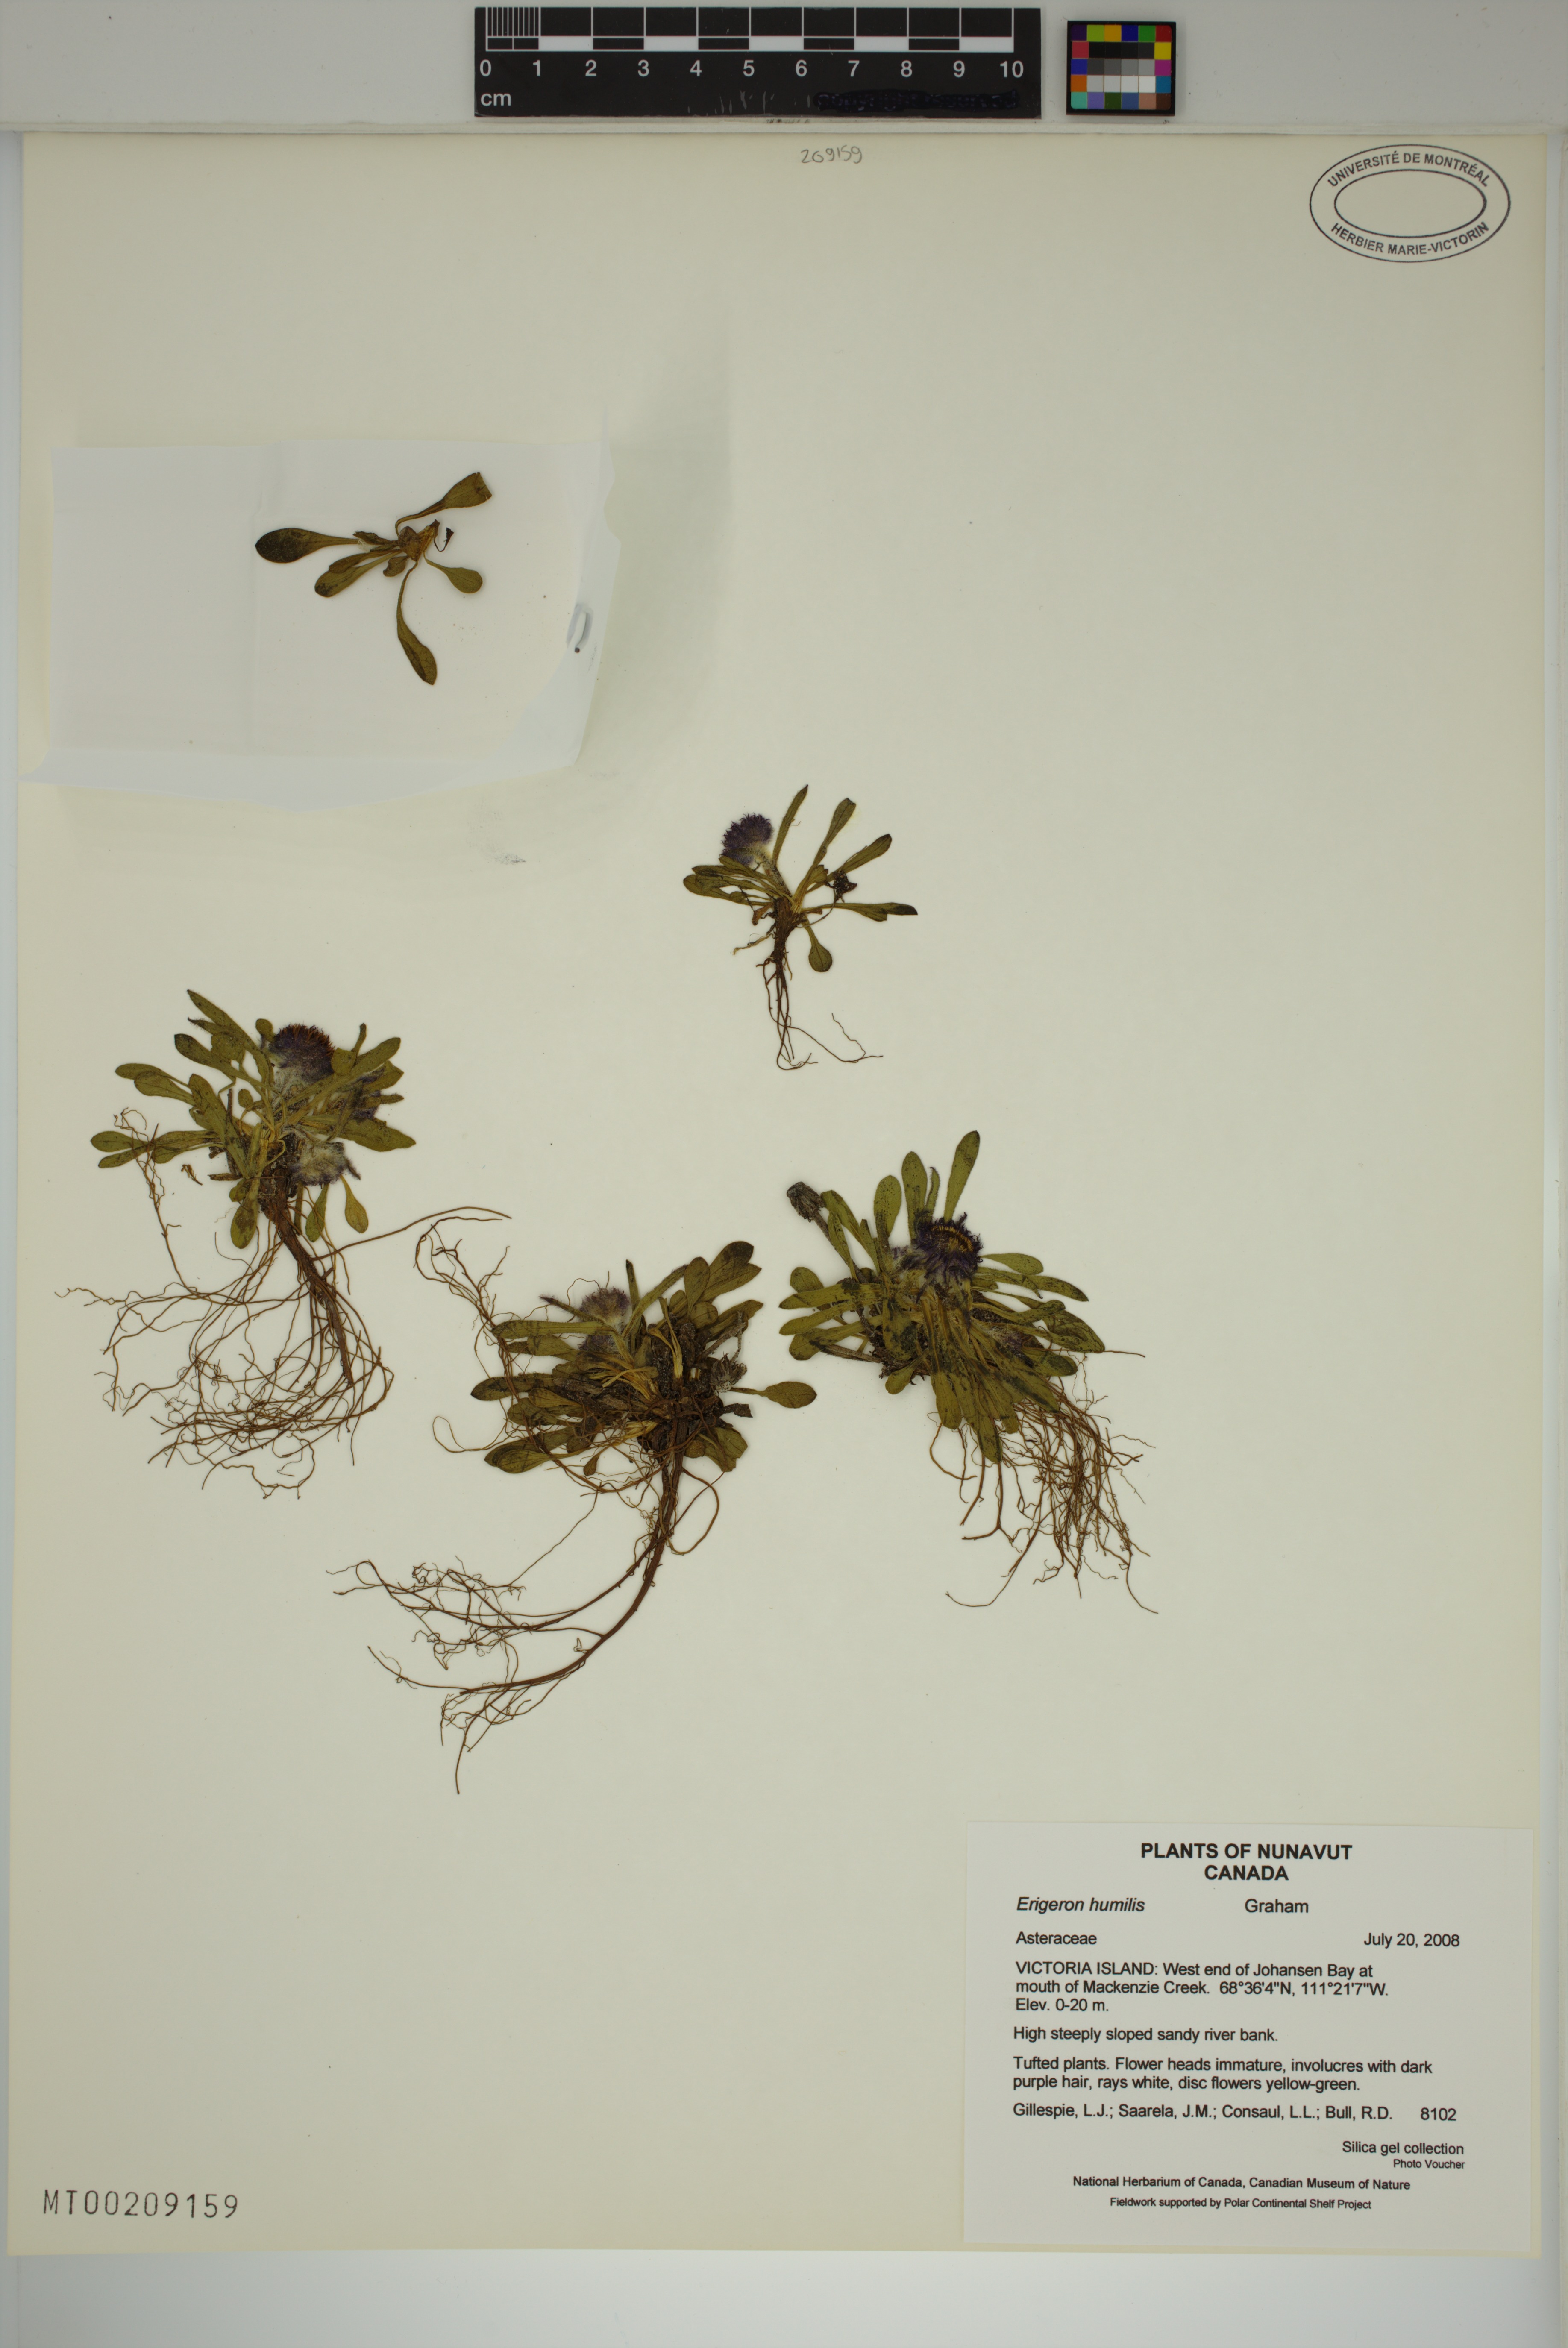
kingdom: Plantae
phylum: Tracheophyta
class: Magnoliopsida
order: Asterales
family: Asteraceae
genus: Erigeron
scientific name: Erigeron humilis
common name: Arctic-alpine fleabane
